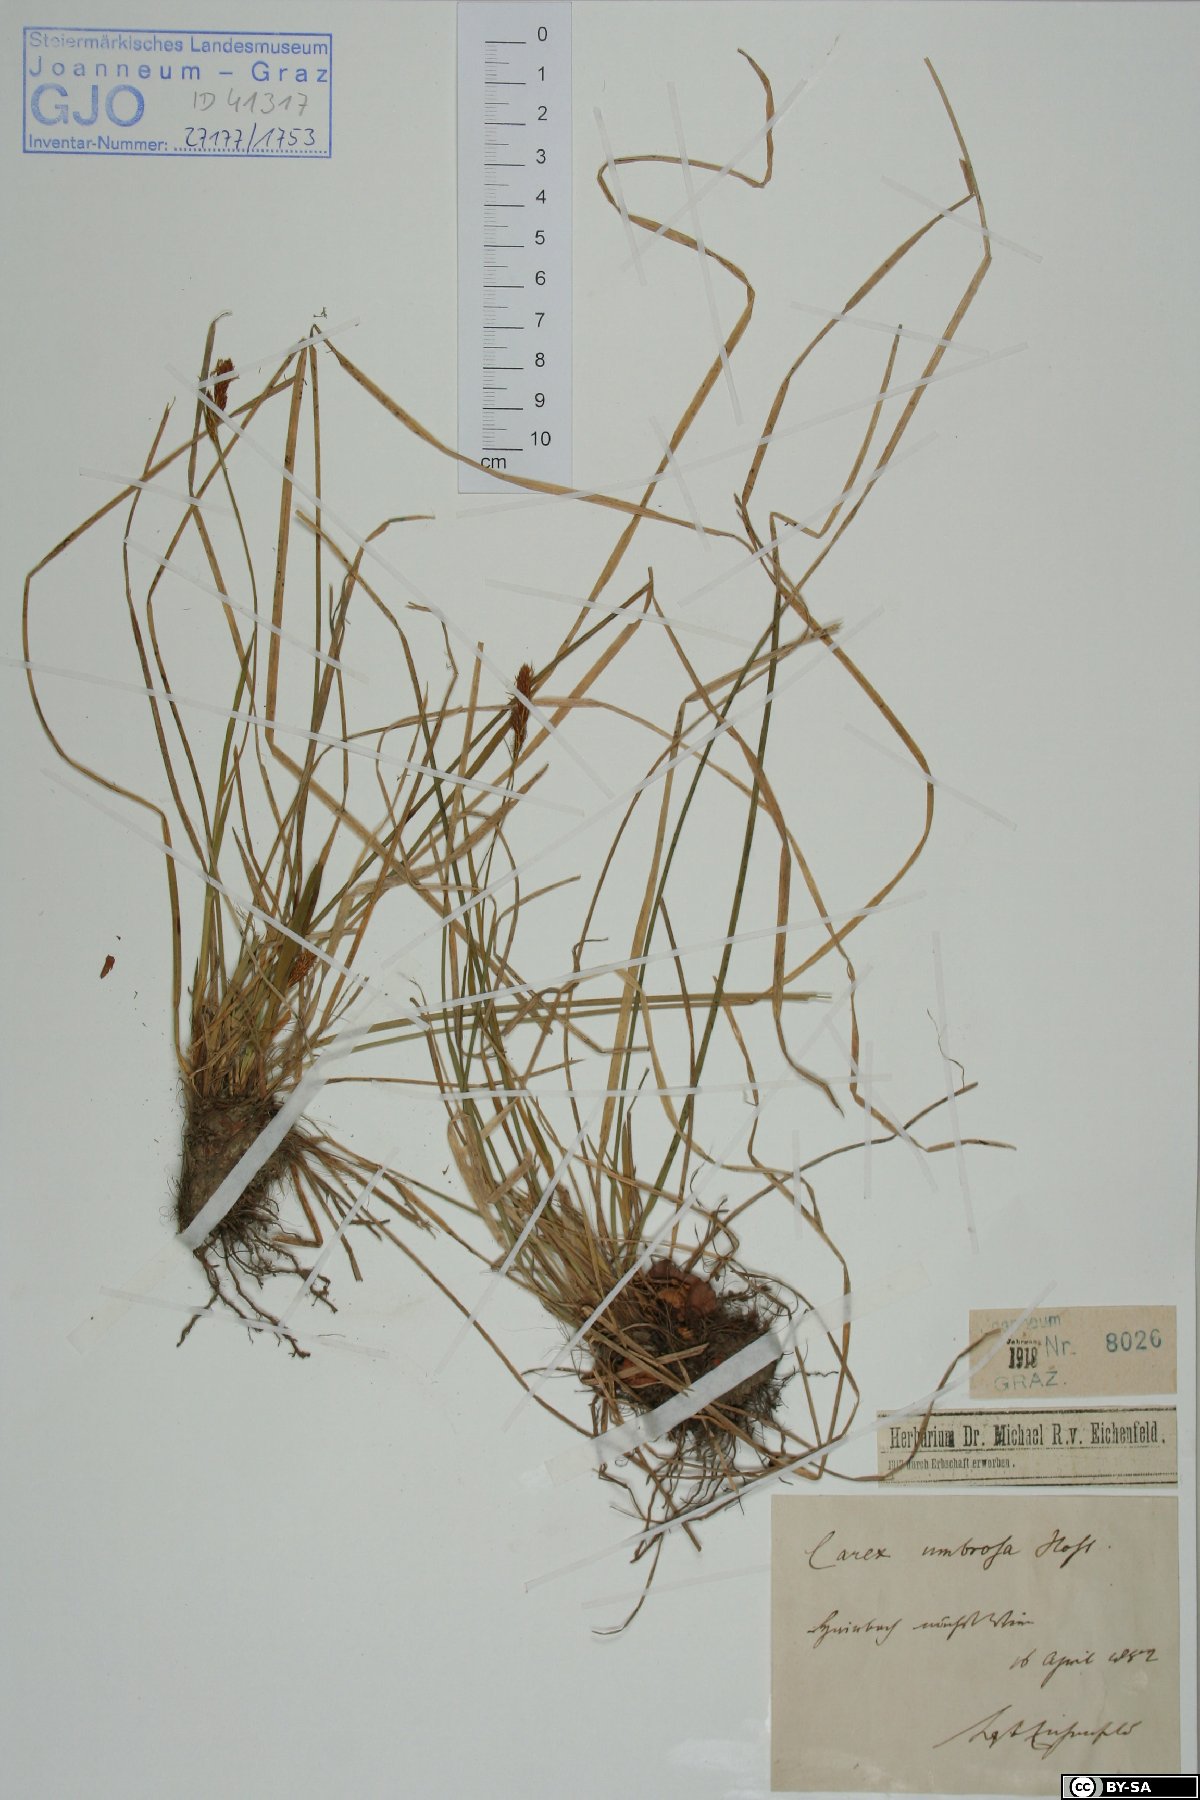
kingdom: Plantae
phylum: Tracheophyta
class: Liliopsida
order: Poales
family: Cyperaceae
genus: Carex
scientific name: Carex umbrosa
